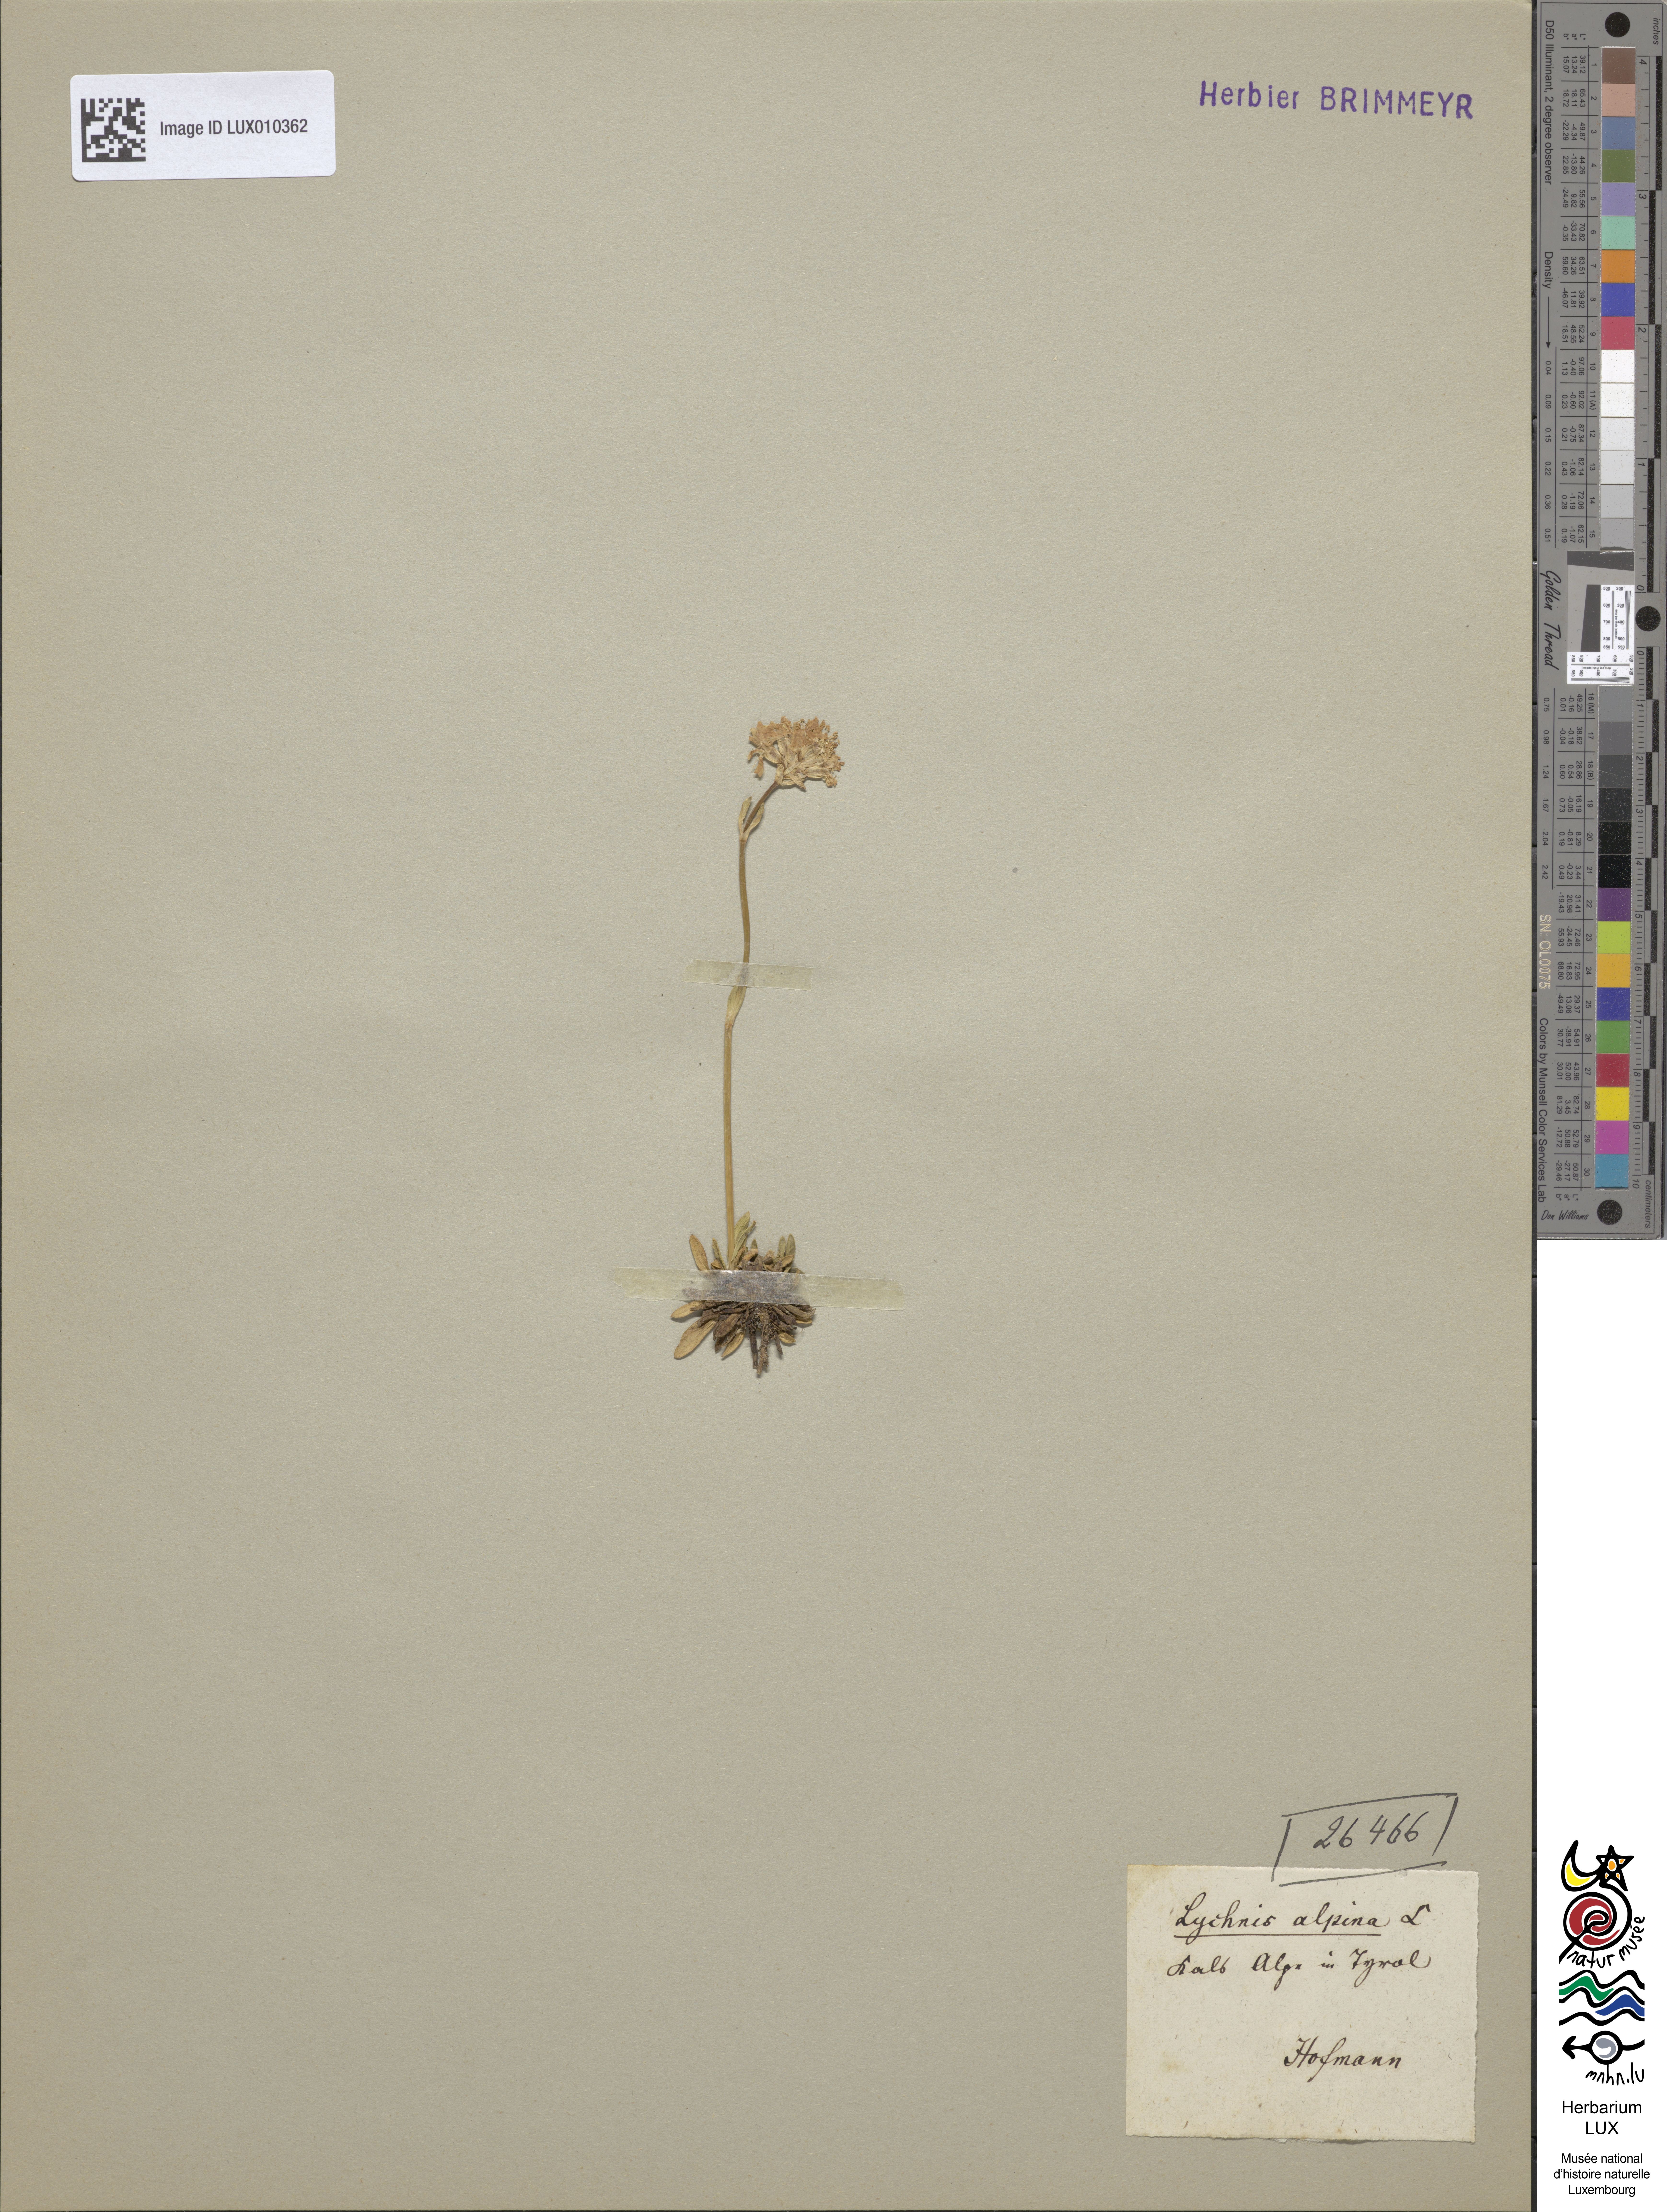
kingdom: Plantae
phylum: Tracheophyta
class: Magnoliopsida
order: Caryophyllales
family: Caryophyllaceae
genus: Viscaria
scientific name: Viscaria alpina
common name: Alpine campion
